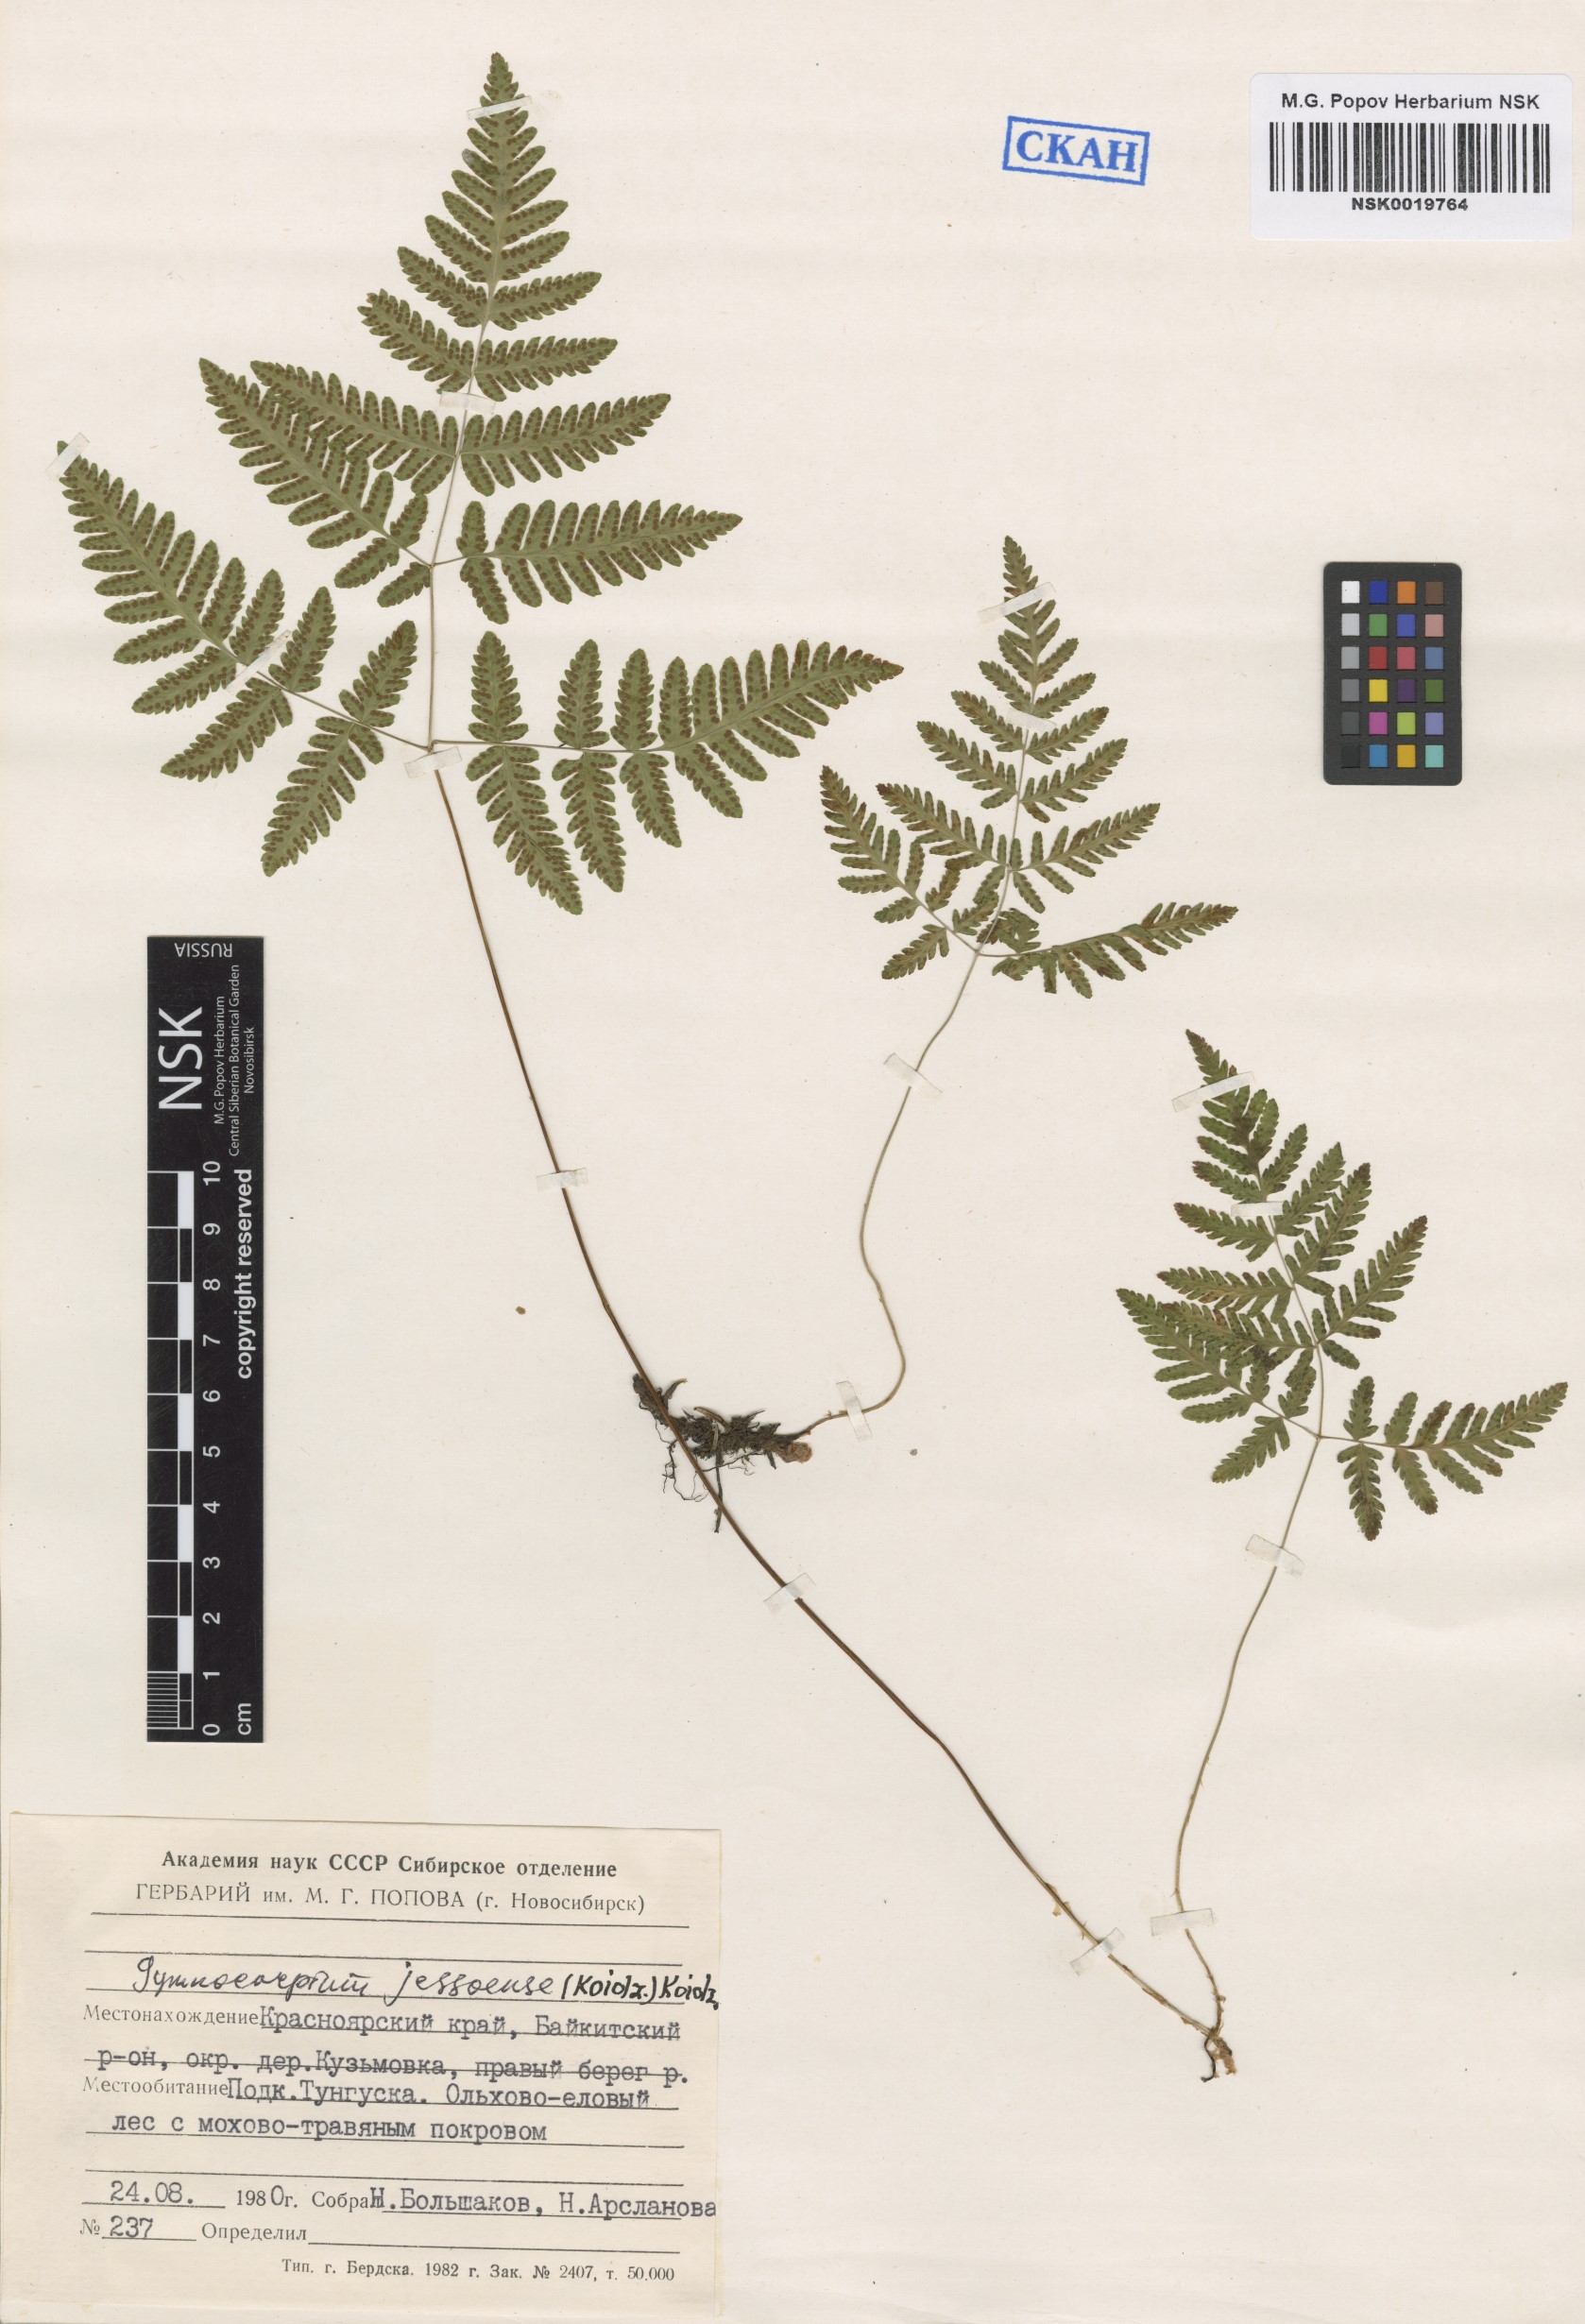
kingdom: Plantae
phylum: Tracheophyta
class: Polypodiopsida
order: Polypodiales
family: Cystopteridaceae
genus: Gymnocarpium
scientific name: Gymnocarpium jessoense
